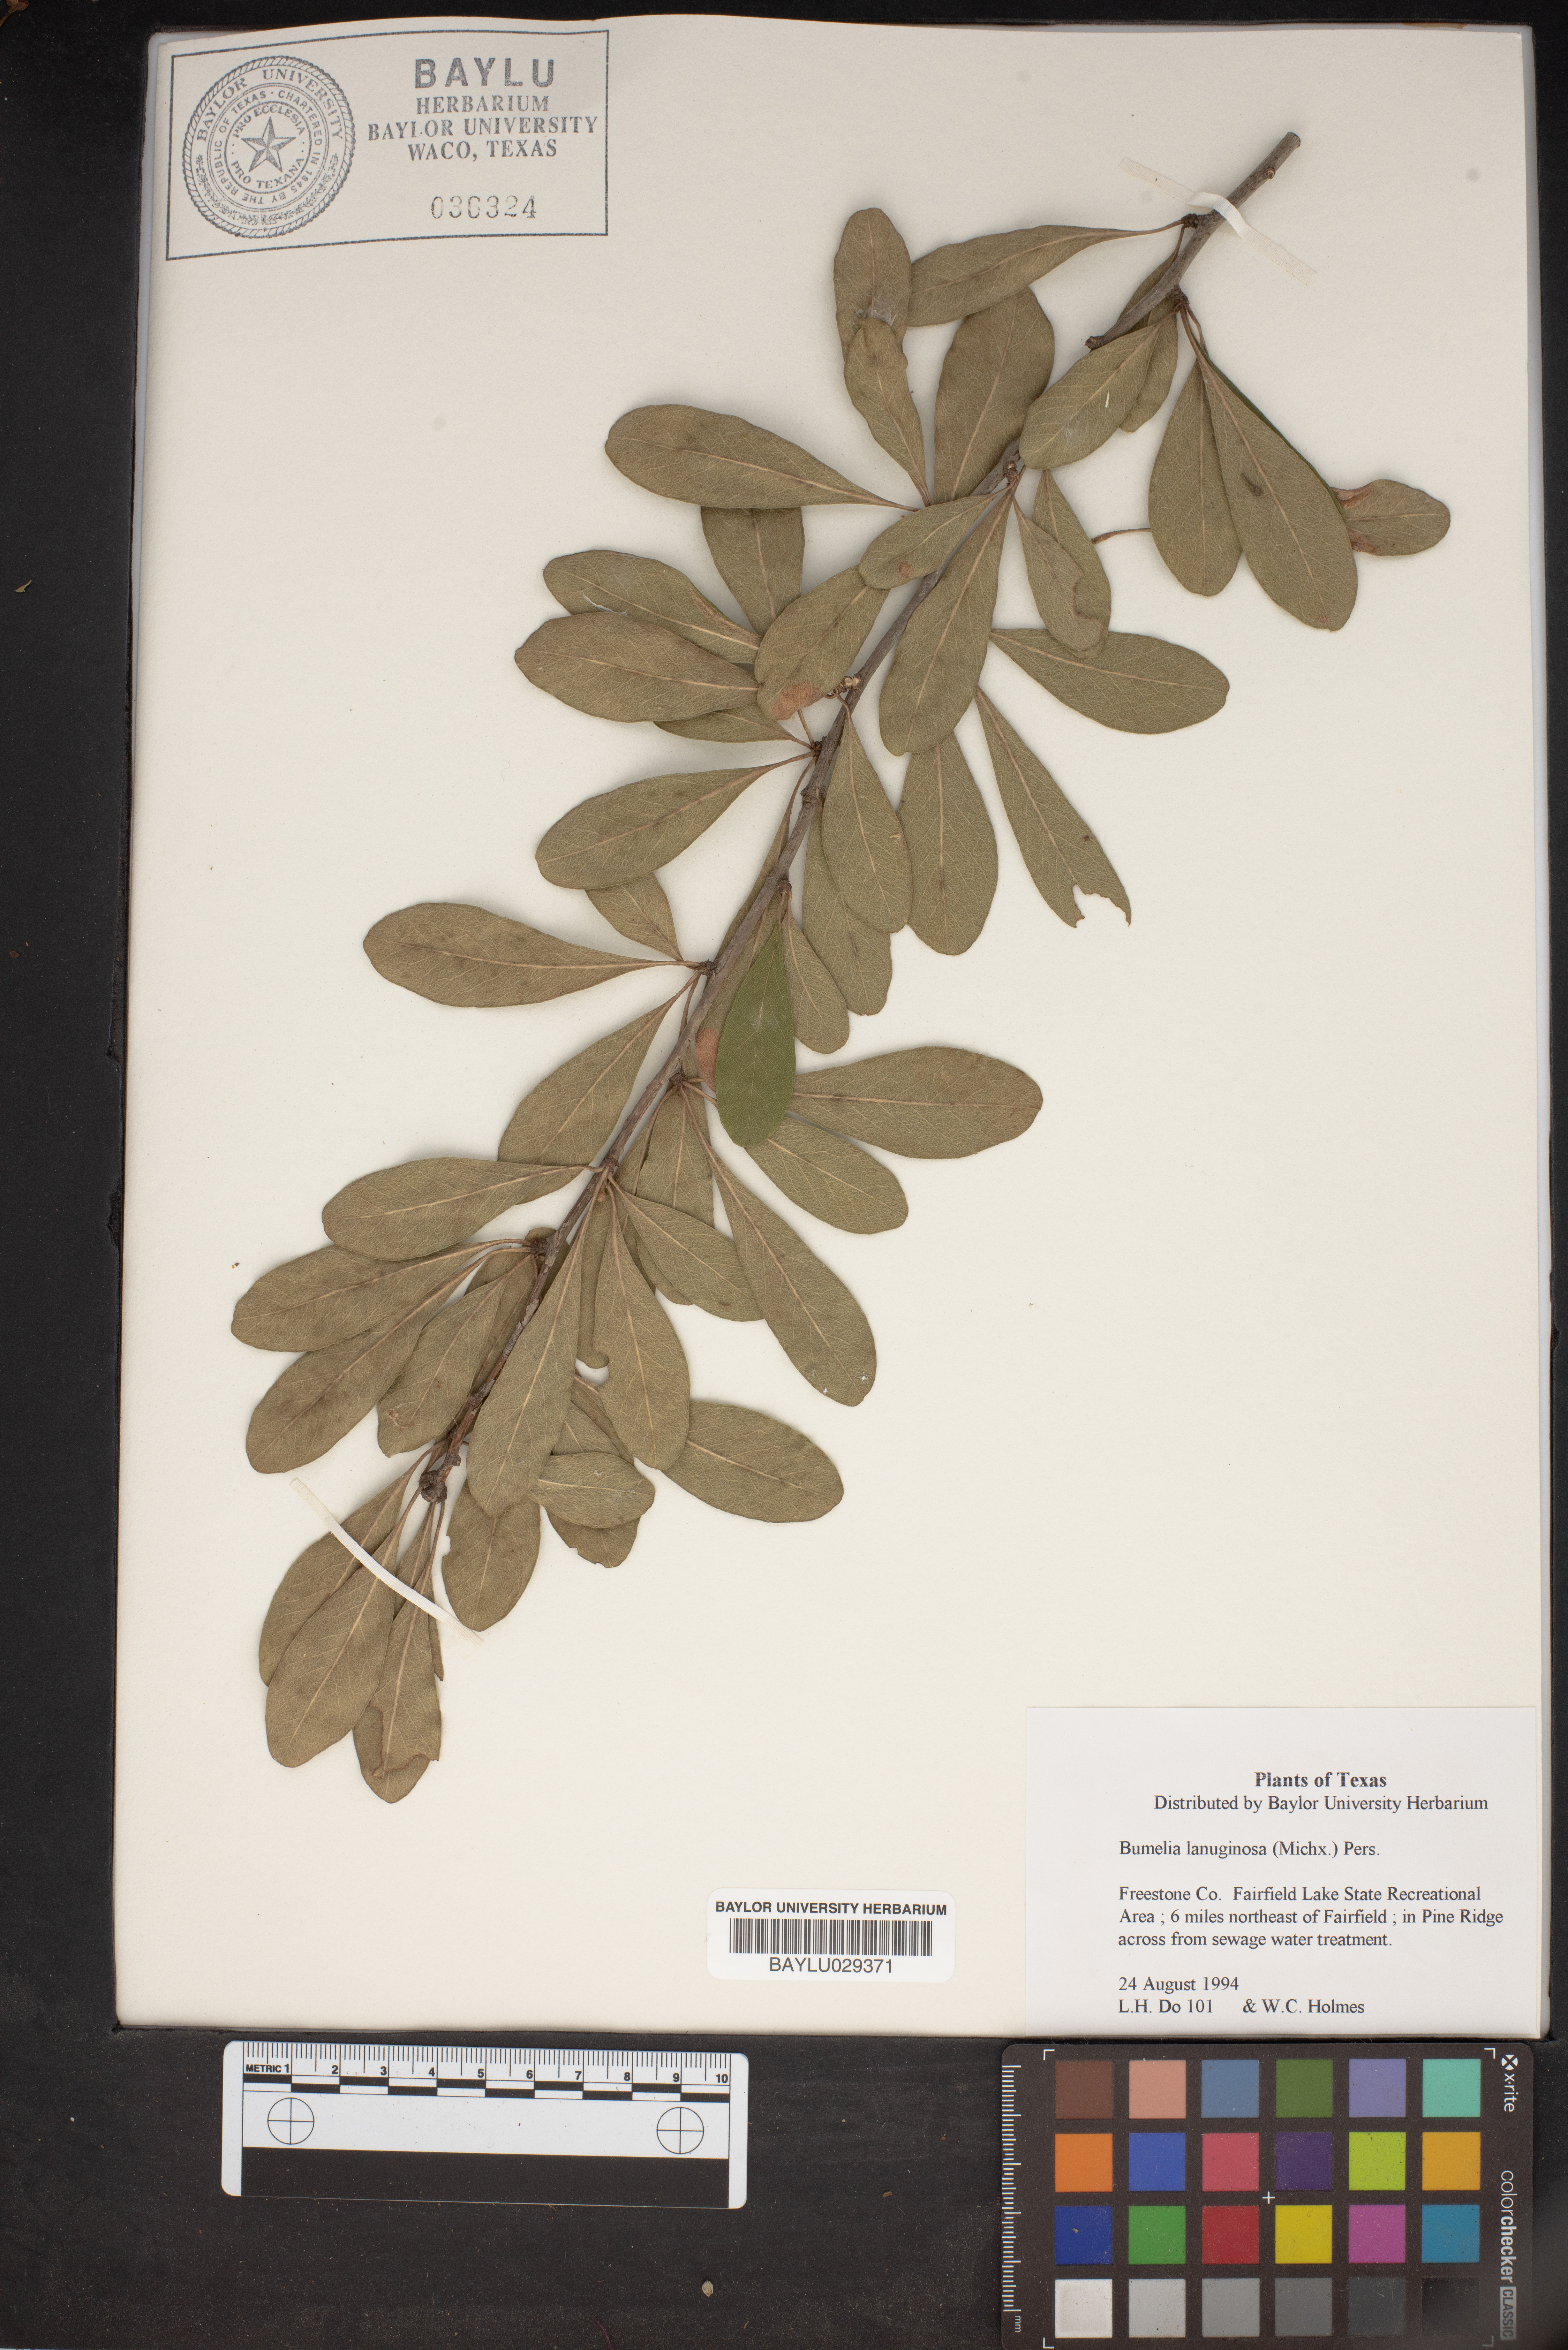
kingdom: Plantae
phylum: Tracheophyta
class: Magnoliopsida
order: Ericales
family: Sapotaceae
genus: Sideroxylon
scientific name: Sideroxylon lanuginosum
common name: Chittamwood
